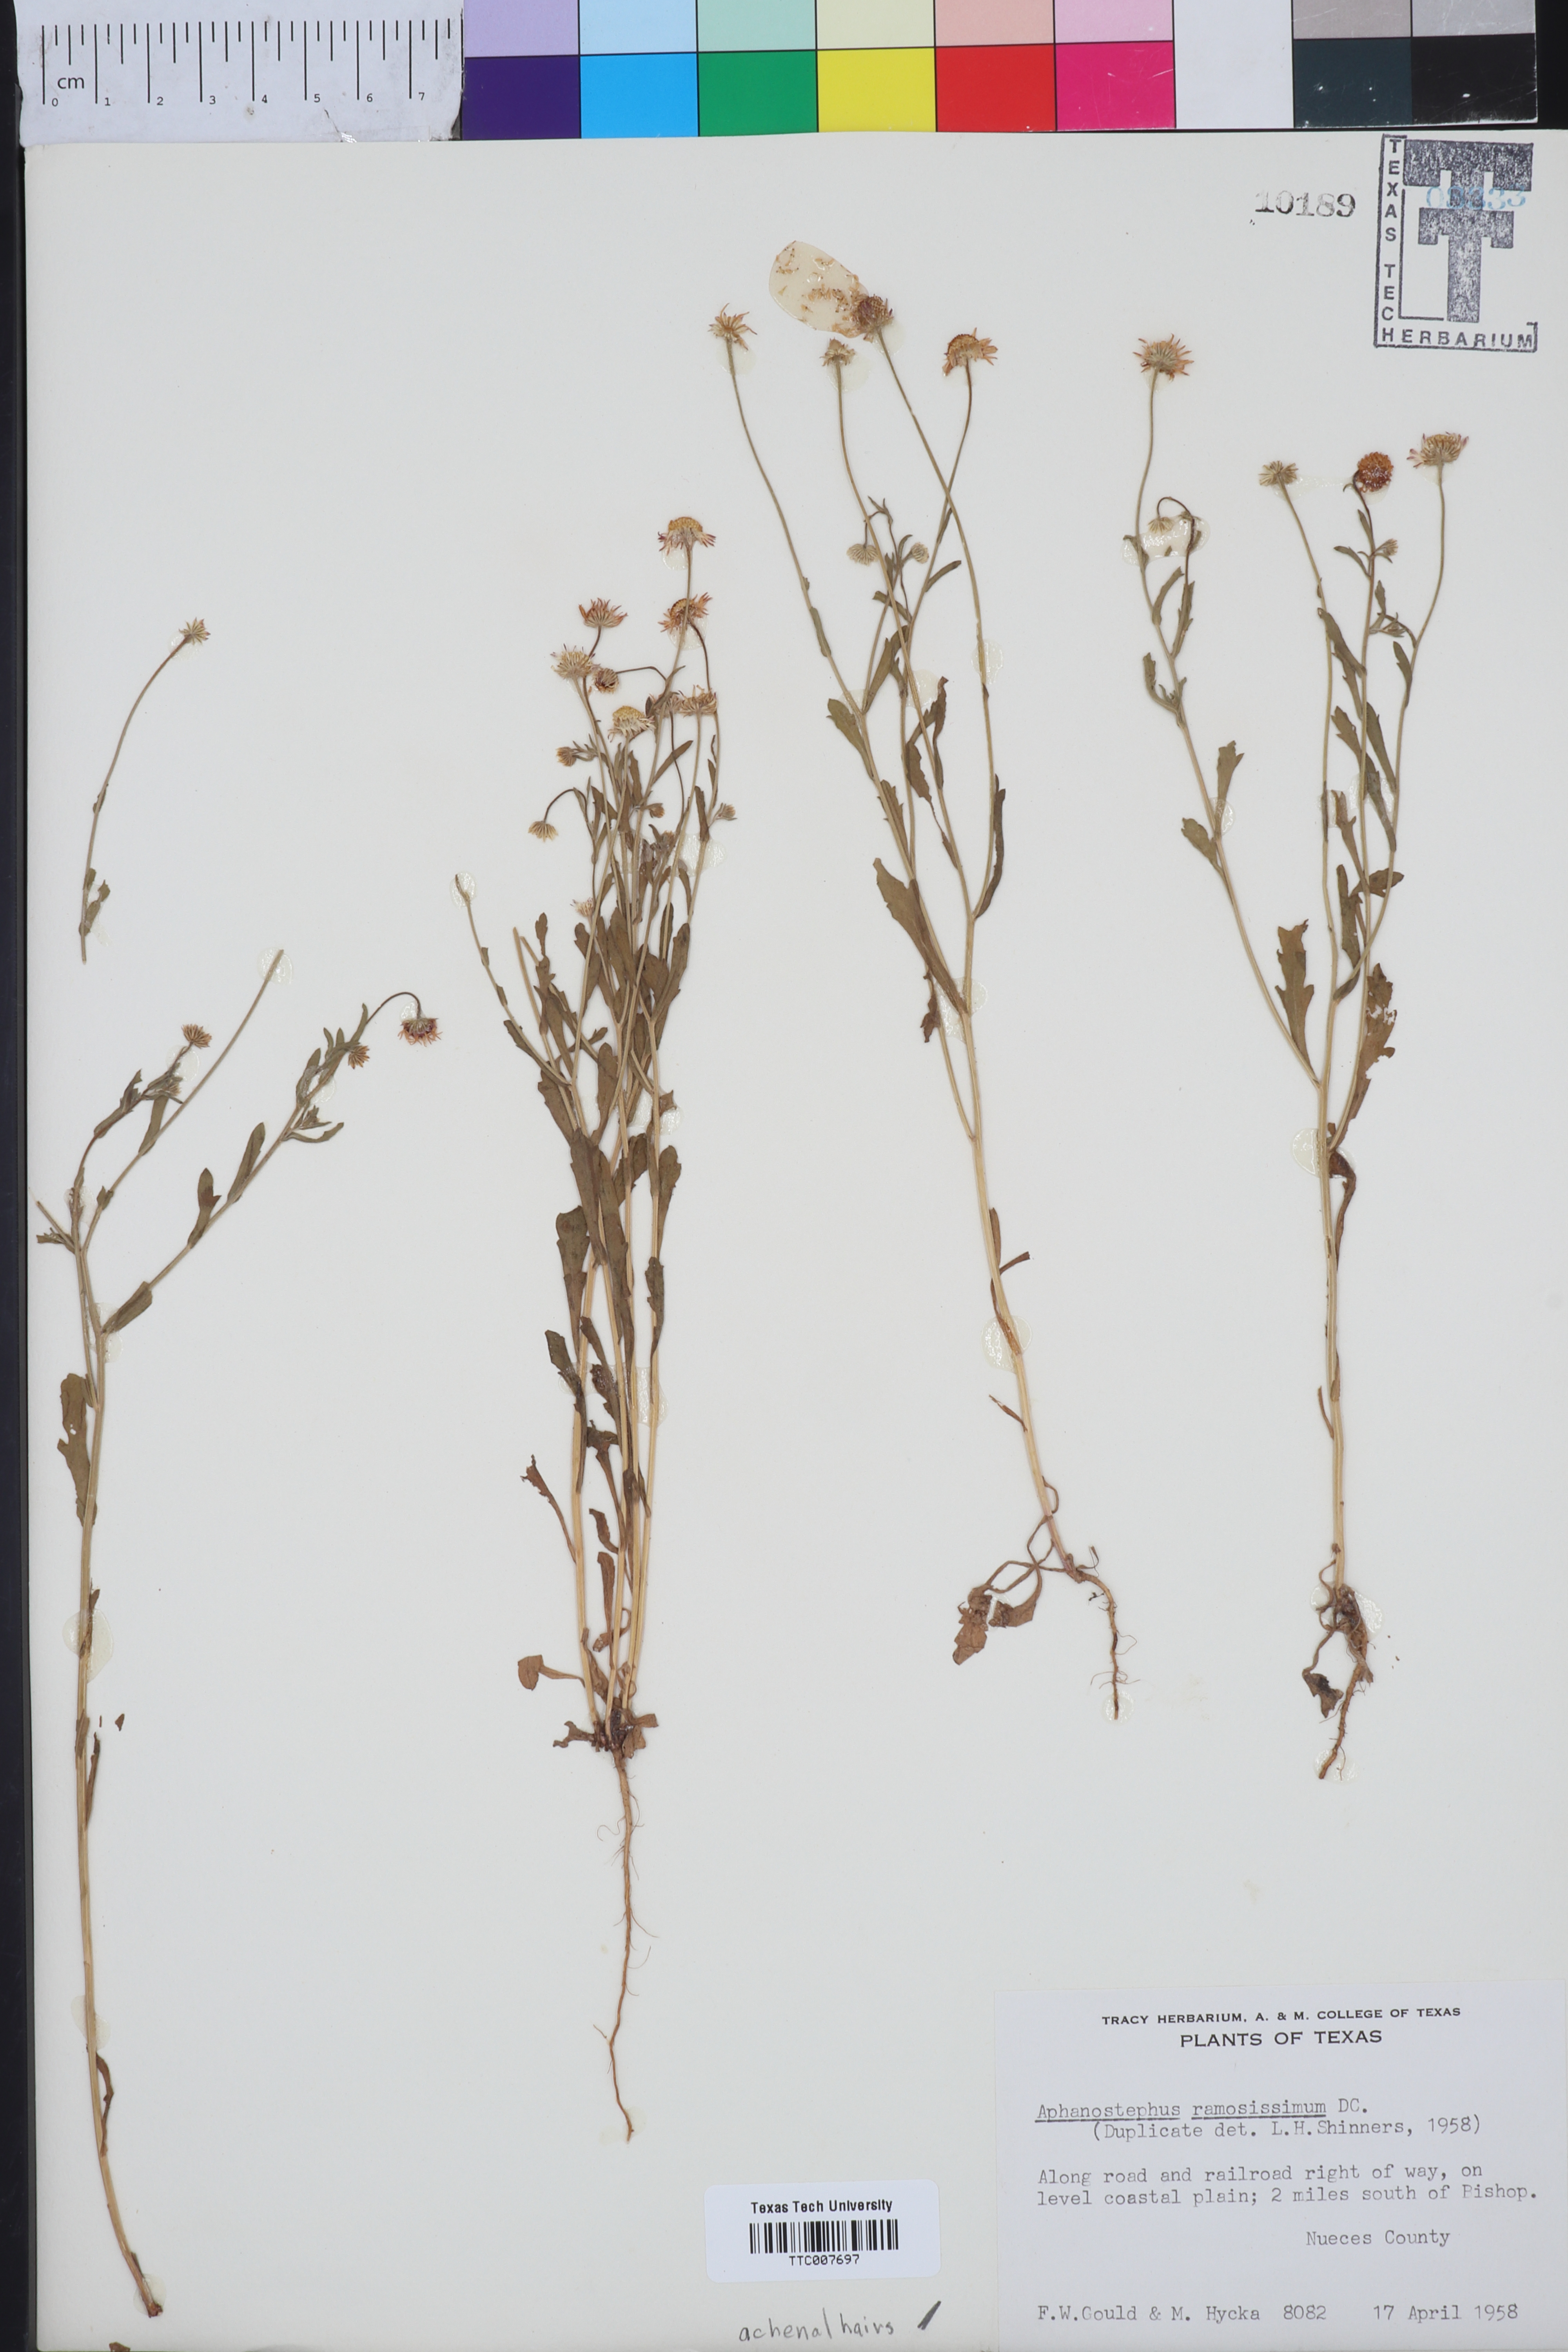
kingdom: Plantae
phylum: Tracheophyta
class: Magnoliopsida
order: Asterales
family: Asteraceae
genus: Aphanostephus
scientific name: Aphanostephus ramosissimus
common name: Plains lazy daisy
